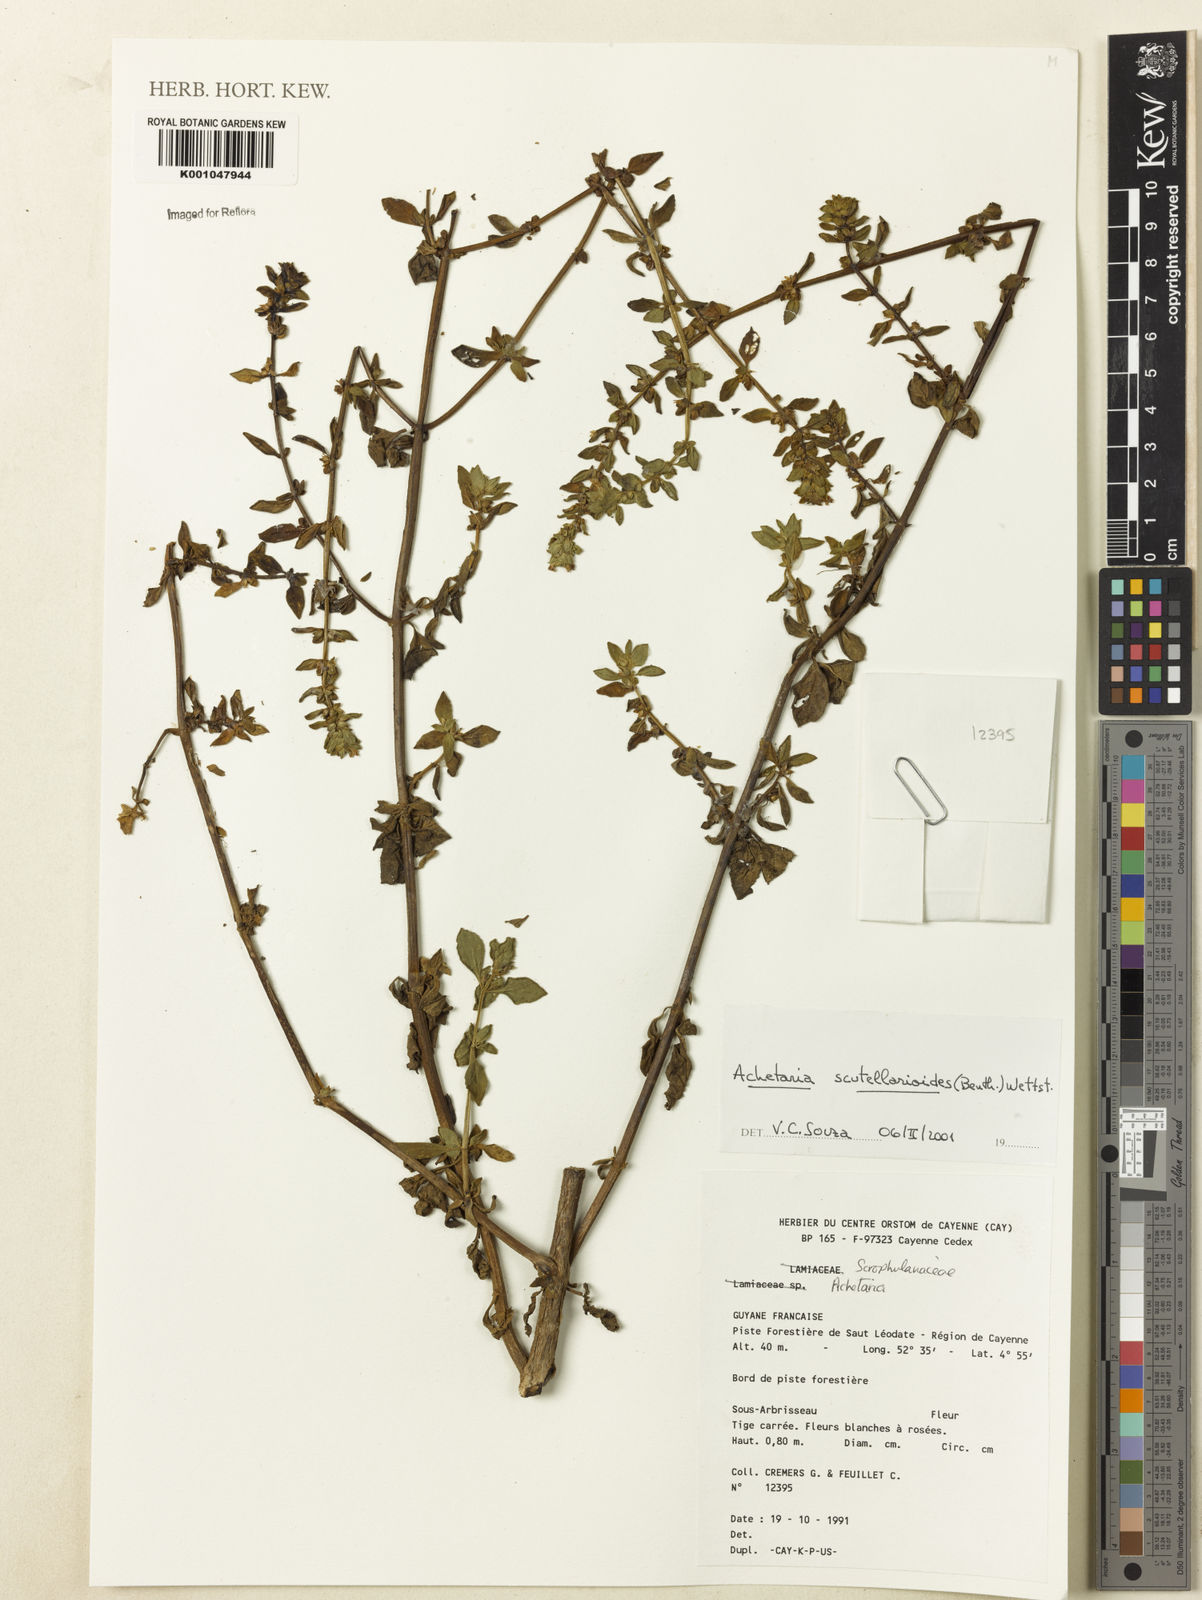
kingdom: Plantae
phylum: Tracheophyta
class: Magnoliopsida
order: Lamiales
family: Plantaginaceae
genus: Matourea
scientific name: Matourea scutellarioides
